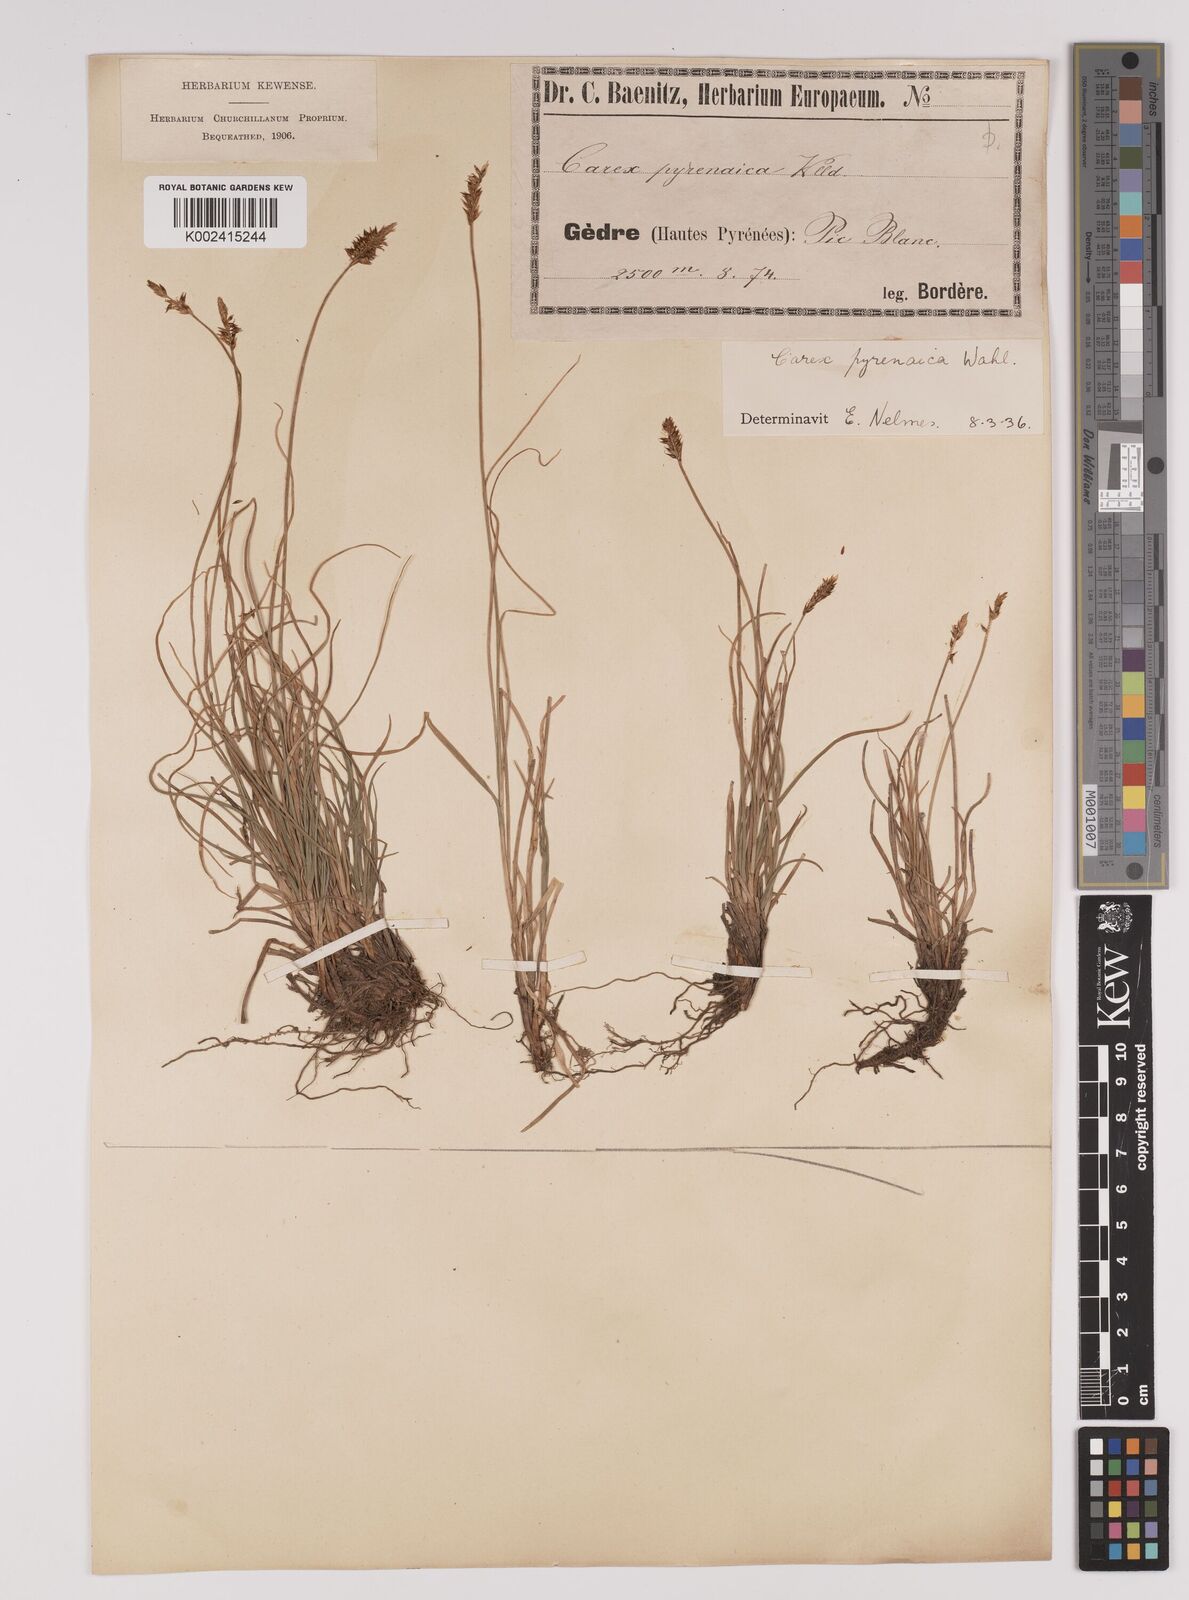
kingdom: Plantae
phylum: Tracheophyta
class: Liliopsida
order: Poales
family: Cyperaceae
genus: Carex
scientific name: Carex acicularis
